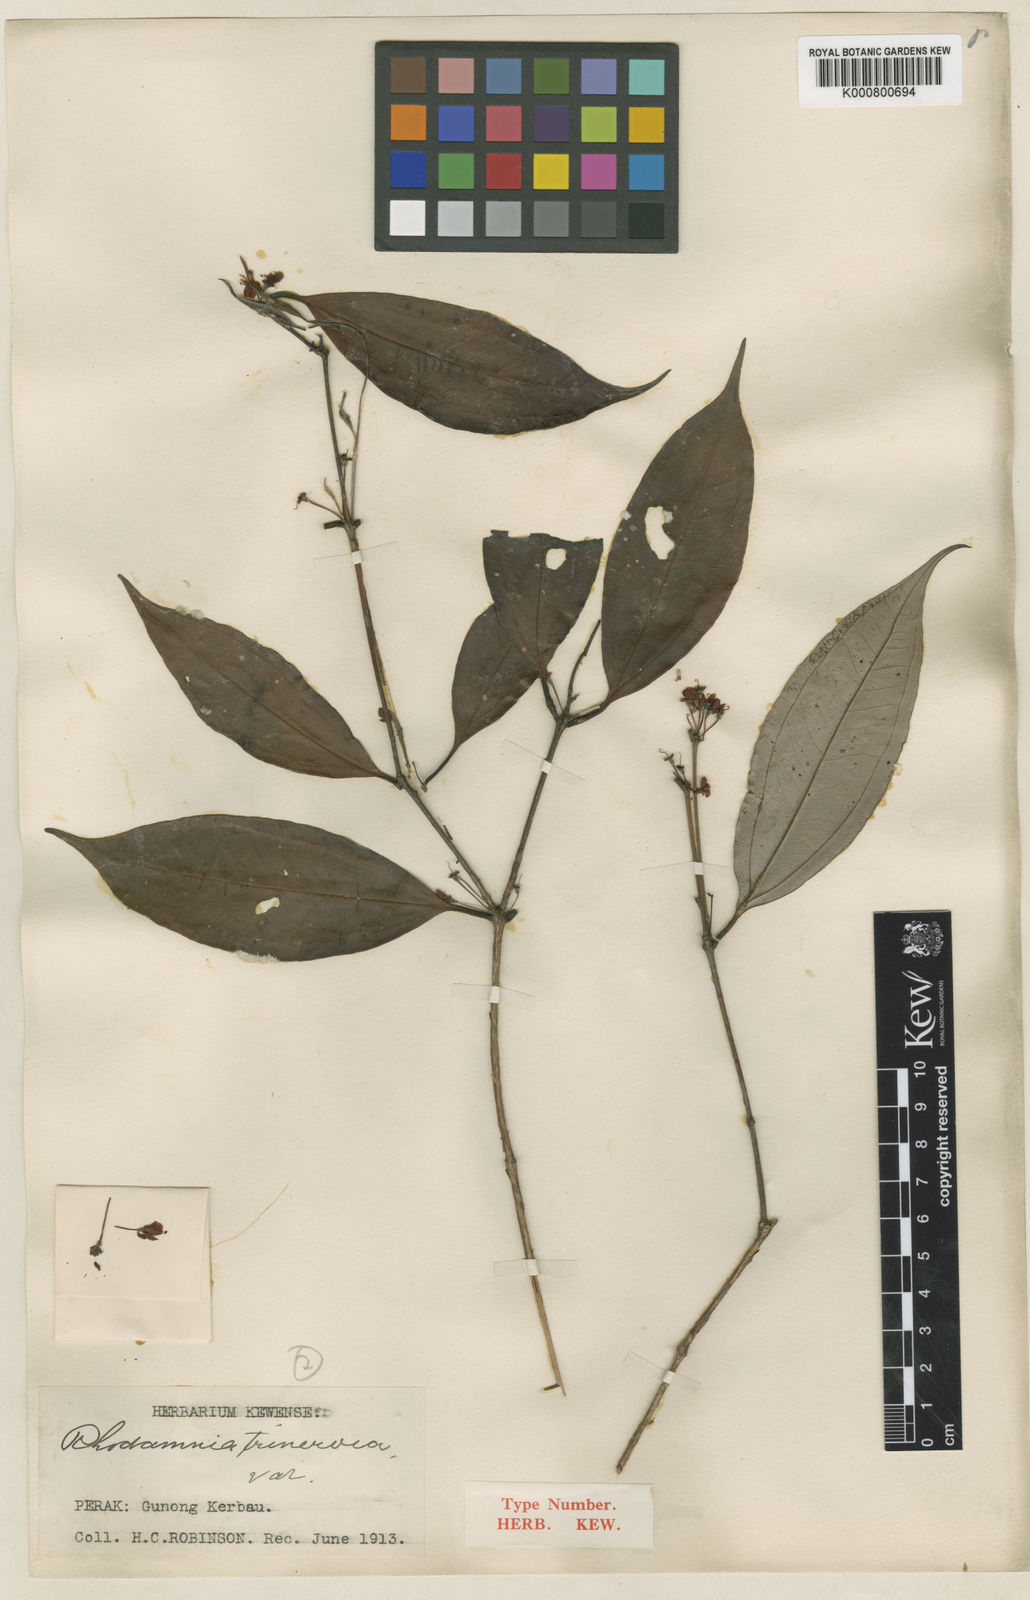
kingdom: Plantae
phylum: Tracheophyta
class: Magnoliopsida
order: Myrtales
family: Myrtaceae
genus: Rhodamnia
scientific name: Rhodamnia cinerea
